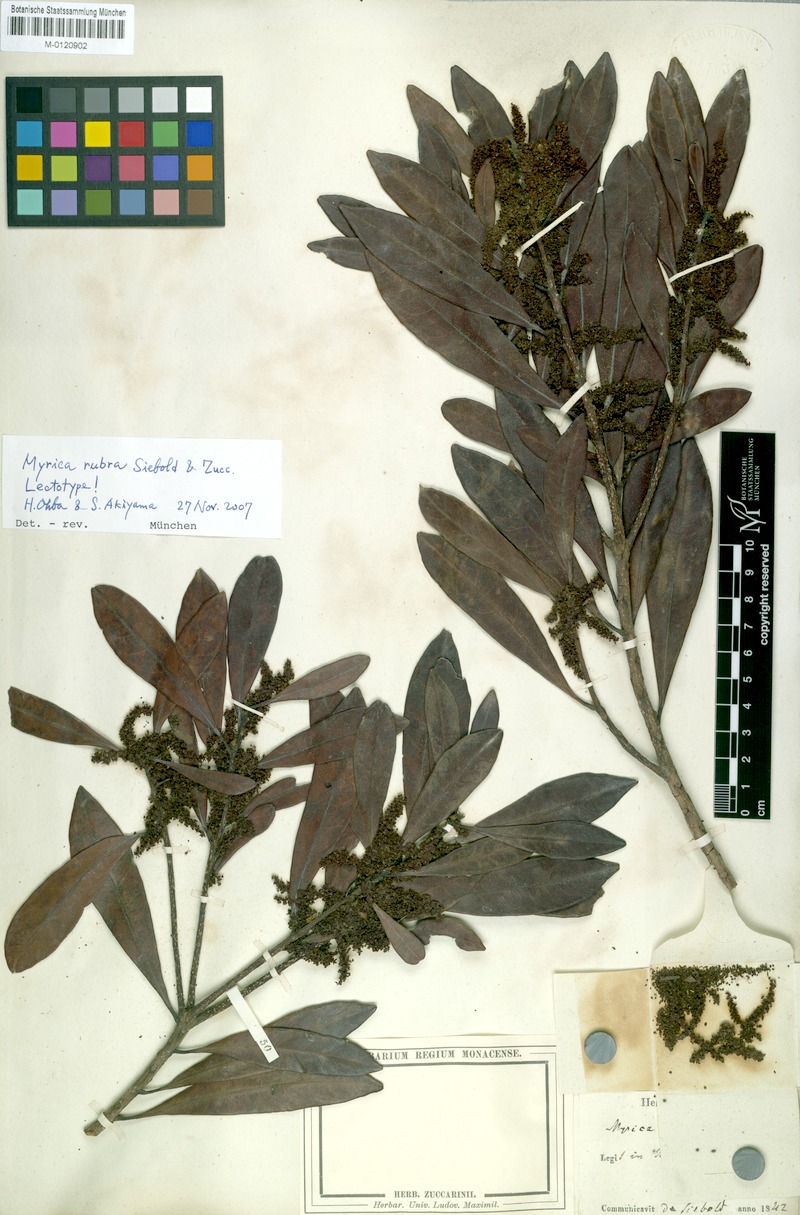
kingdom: Plantae
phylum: Tracheophyta
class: Magnoliopsida
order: Fagales
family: Myricaceae
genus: Morella
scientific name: Morella rubra
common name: Red bayberry
